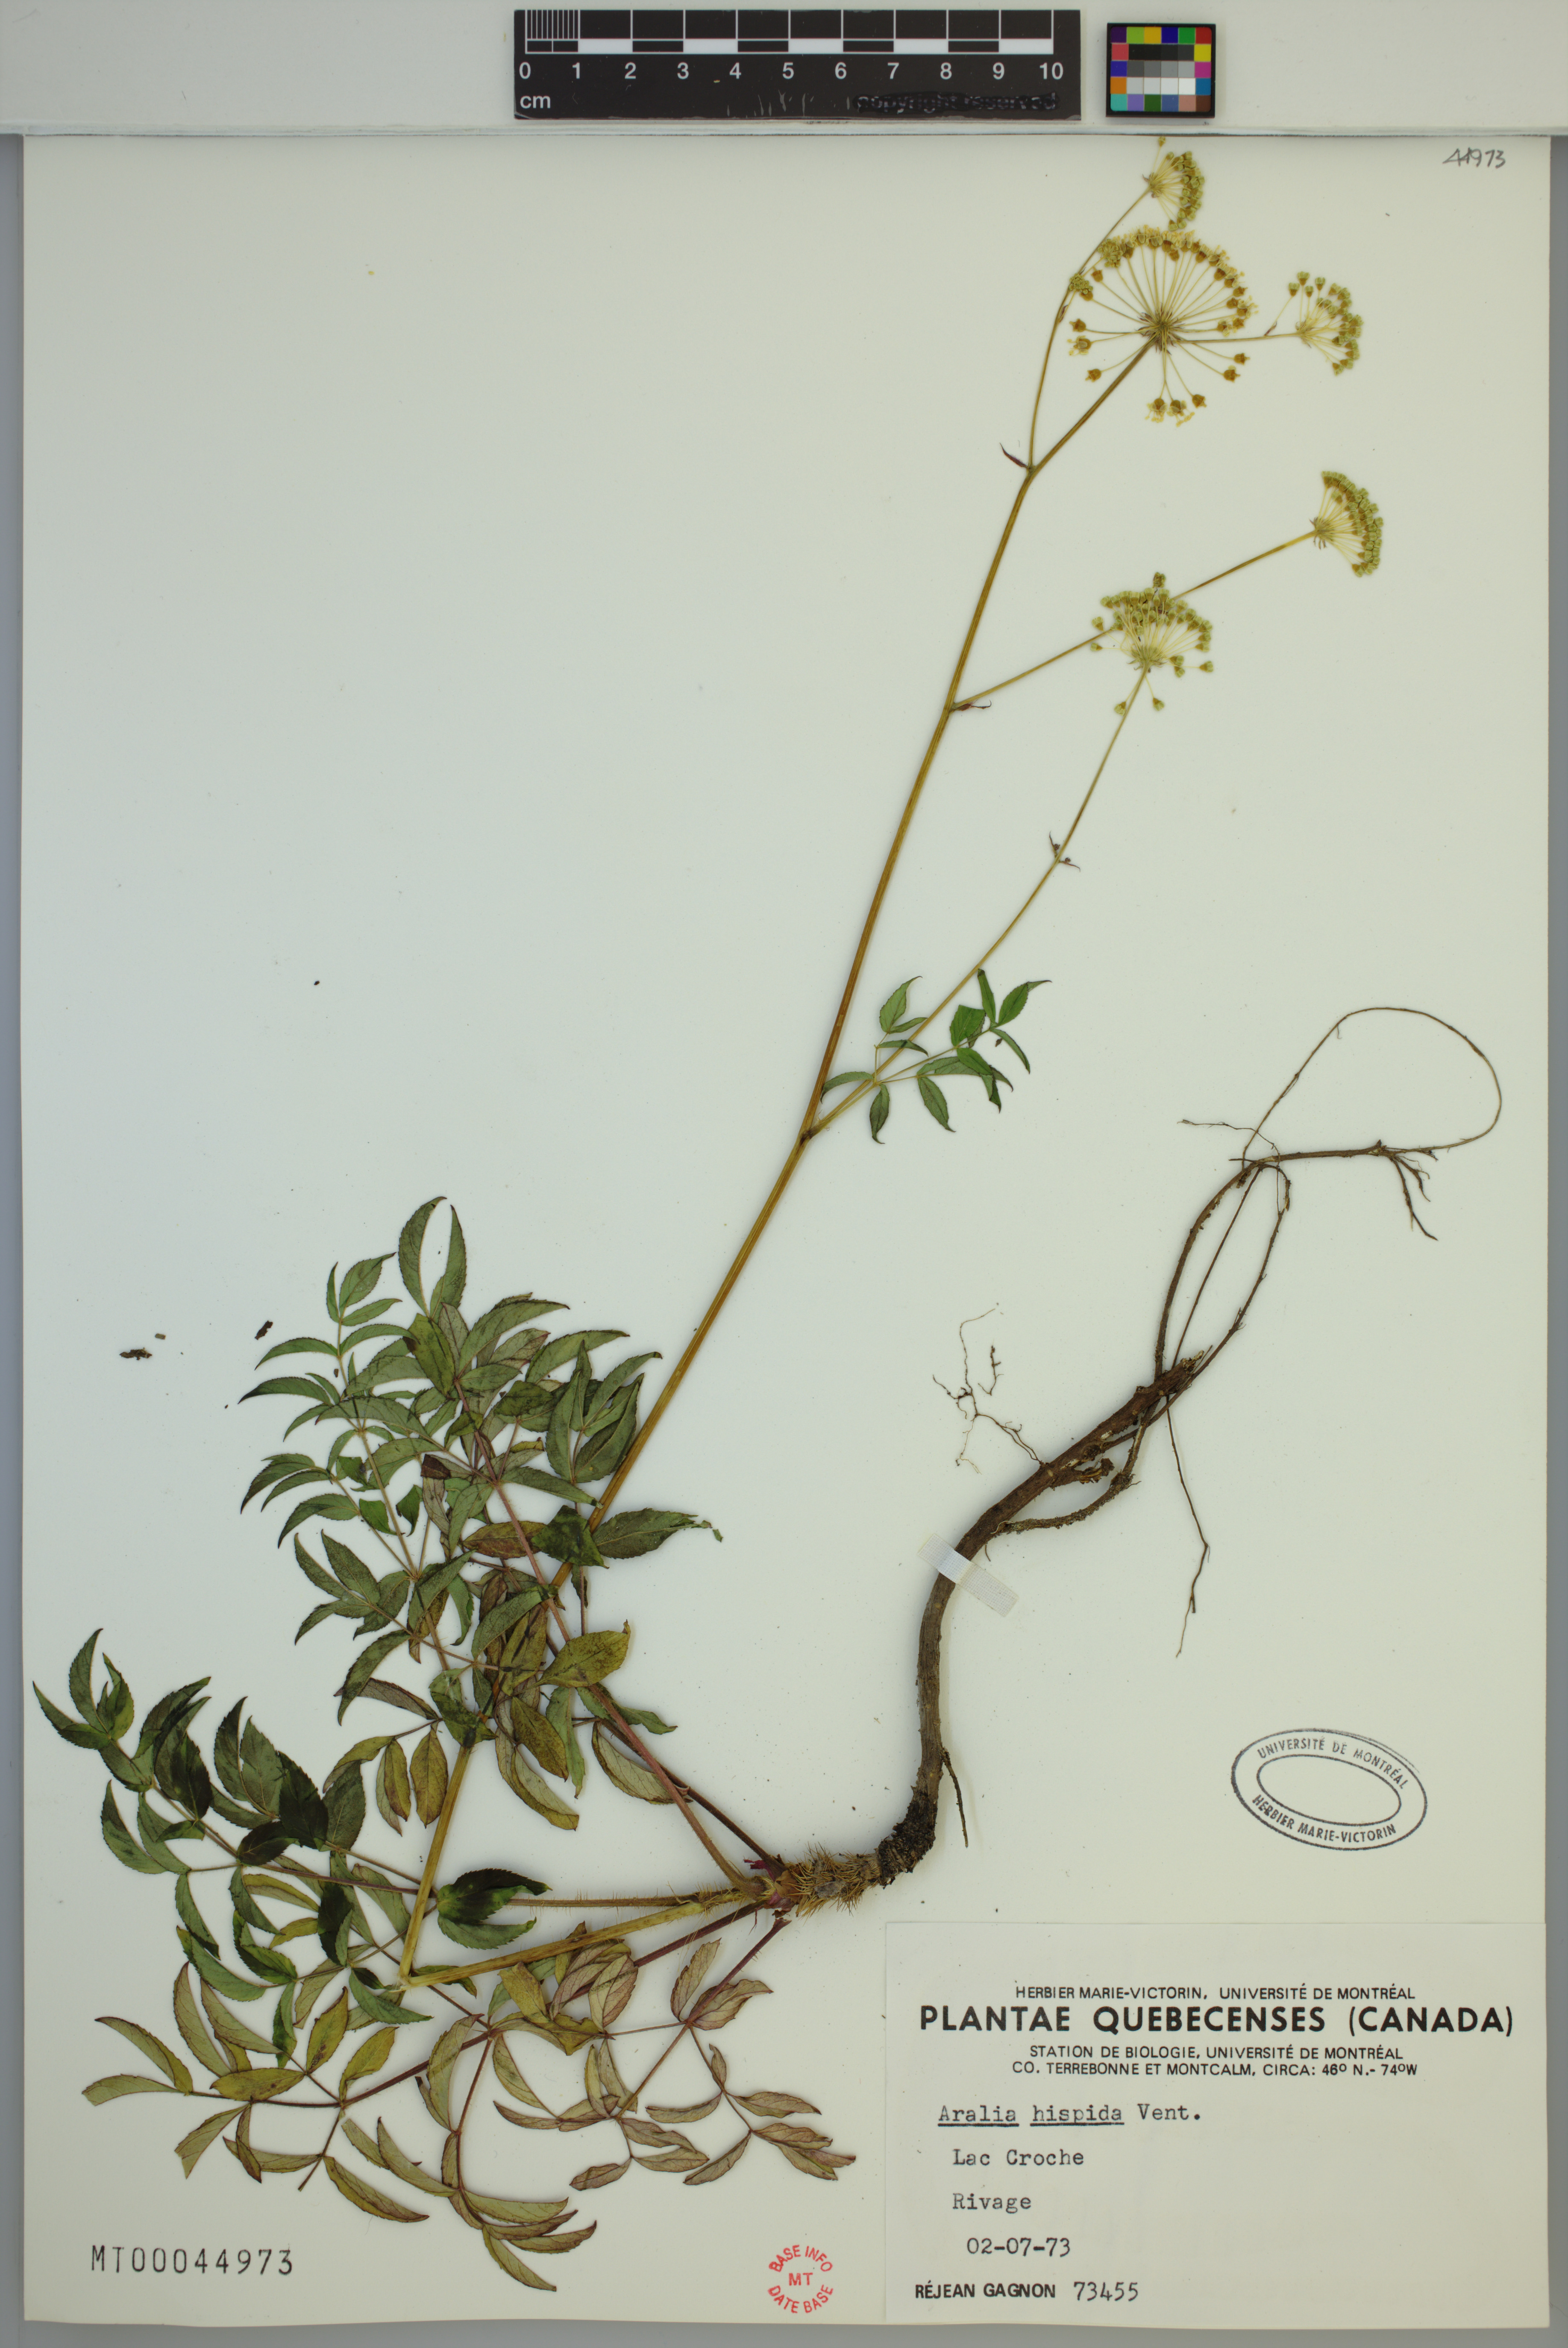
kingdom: Plantae
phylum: Tracheophyta
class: Magnoliopsida
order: Apiales
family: Araliaceae
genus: Aralia
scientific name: Aralia hispida
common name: Bristly sarsaparilla
